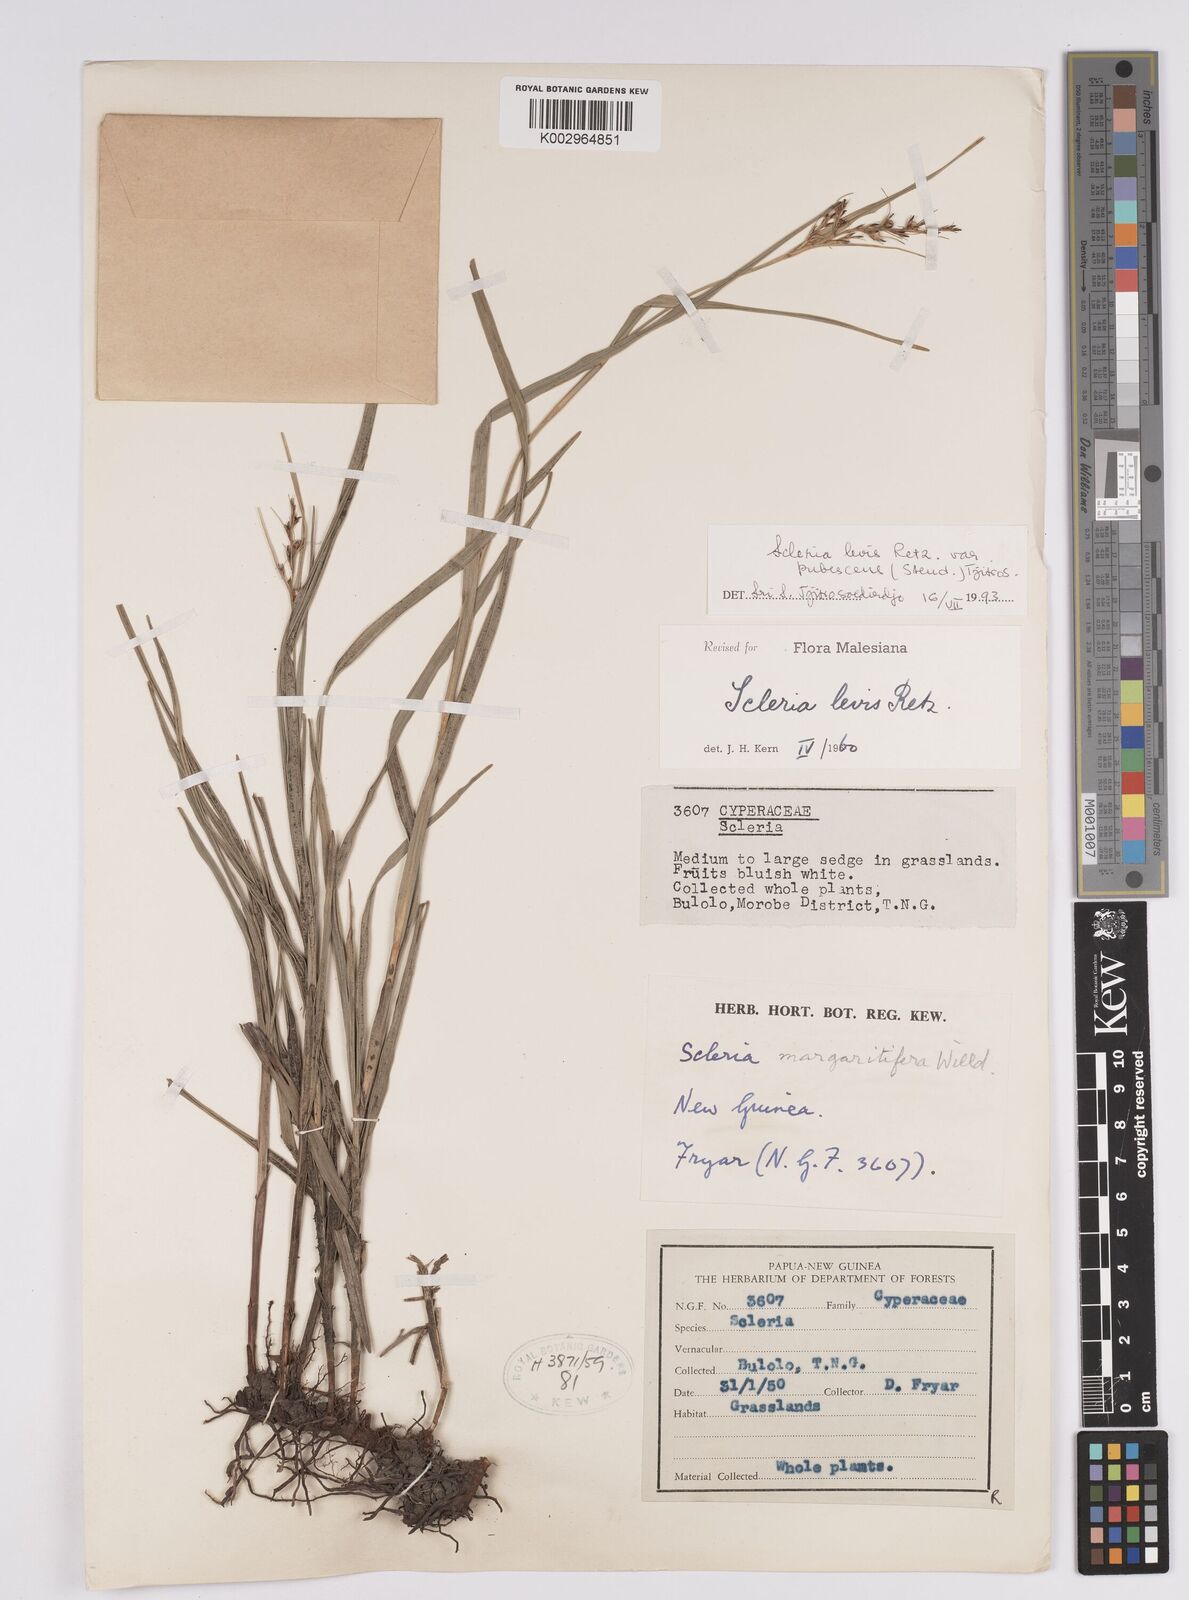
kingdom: Plantae
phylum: Tracheophyta
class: Liliopsida
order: Poales
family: Cyperaceae
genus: Scleria
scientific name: Scleria
